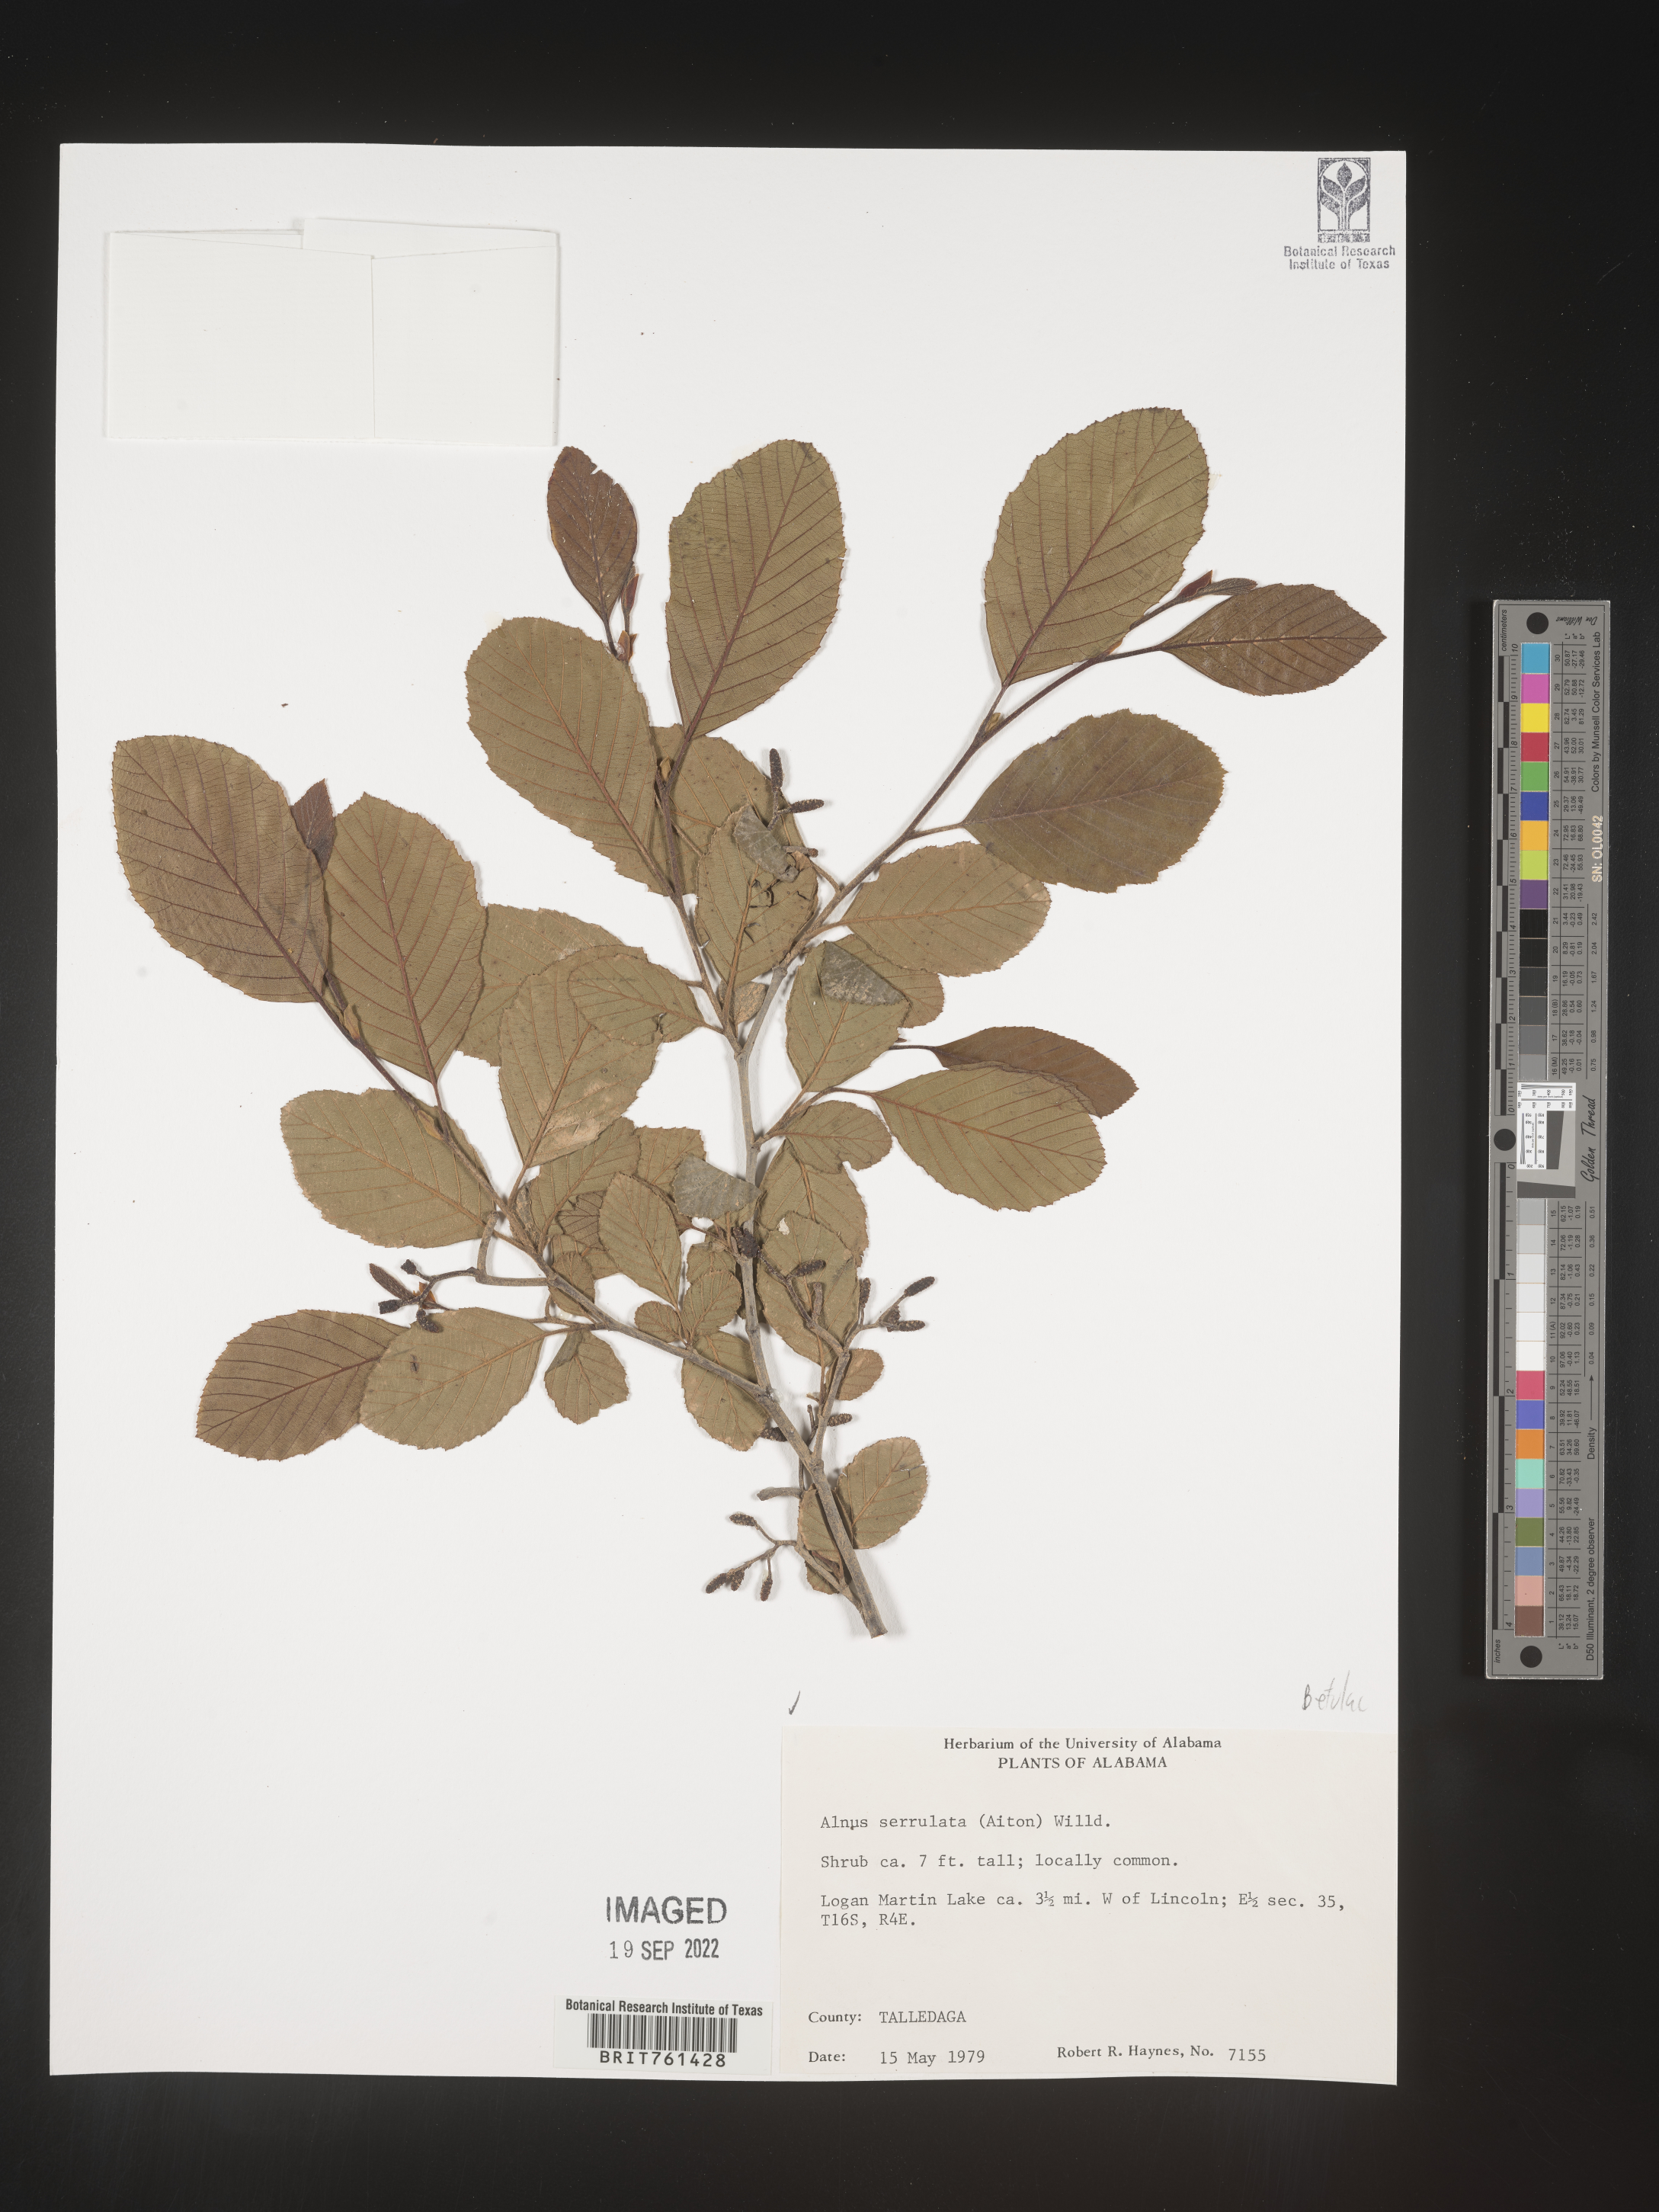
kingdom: Plantae
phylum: Tracheophyta
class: Magnoliopsida
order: Fagales
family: Betulaceae
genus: Alnus
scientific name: Alnus serrulata
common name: Hazel alder
